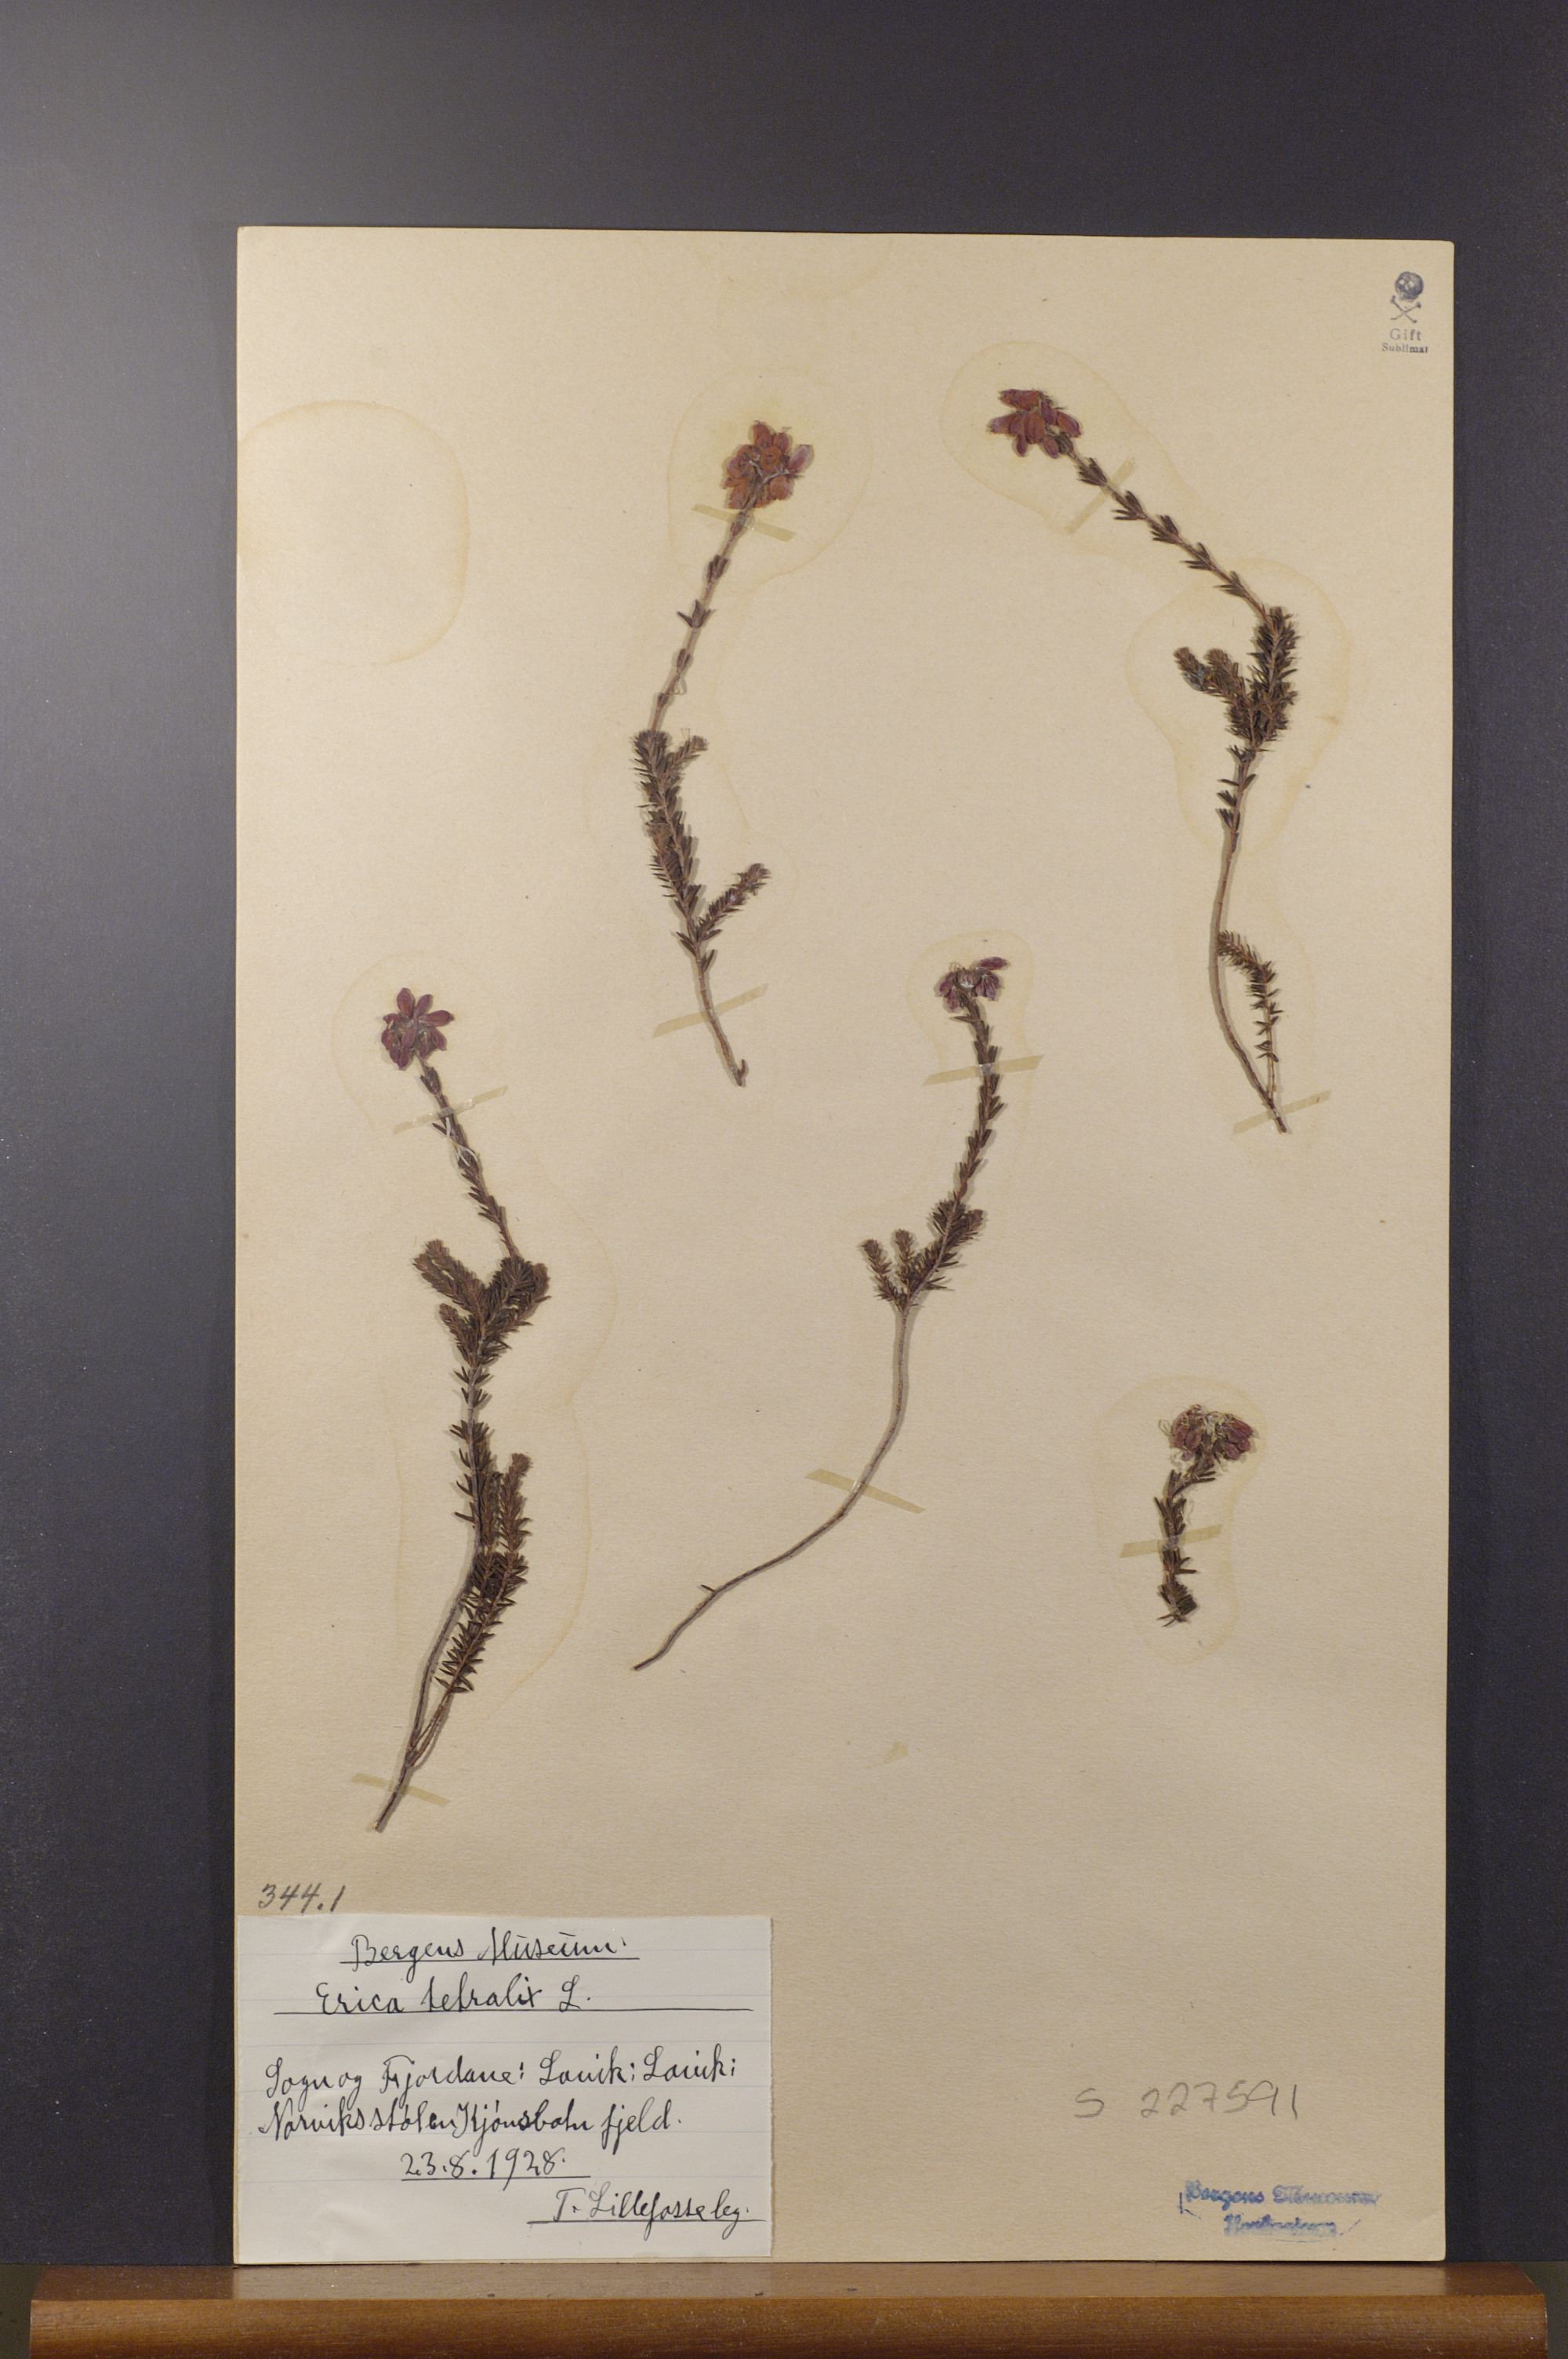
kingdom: Plantae
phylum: Tracheophyta
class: Magnoliopsida
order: Ericales
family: Ericaceae
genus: Erica
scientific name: Erica tetralix
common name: Cross-leaved heath
